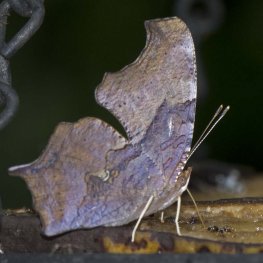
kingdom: Animalia
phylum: Arthropoda
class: Insecta
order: Lepidoptera
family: Nymphalidae
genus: Polygonia
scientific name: Polygonia interrogationis
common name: Question Mark
